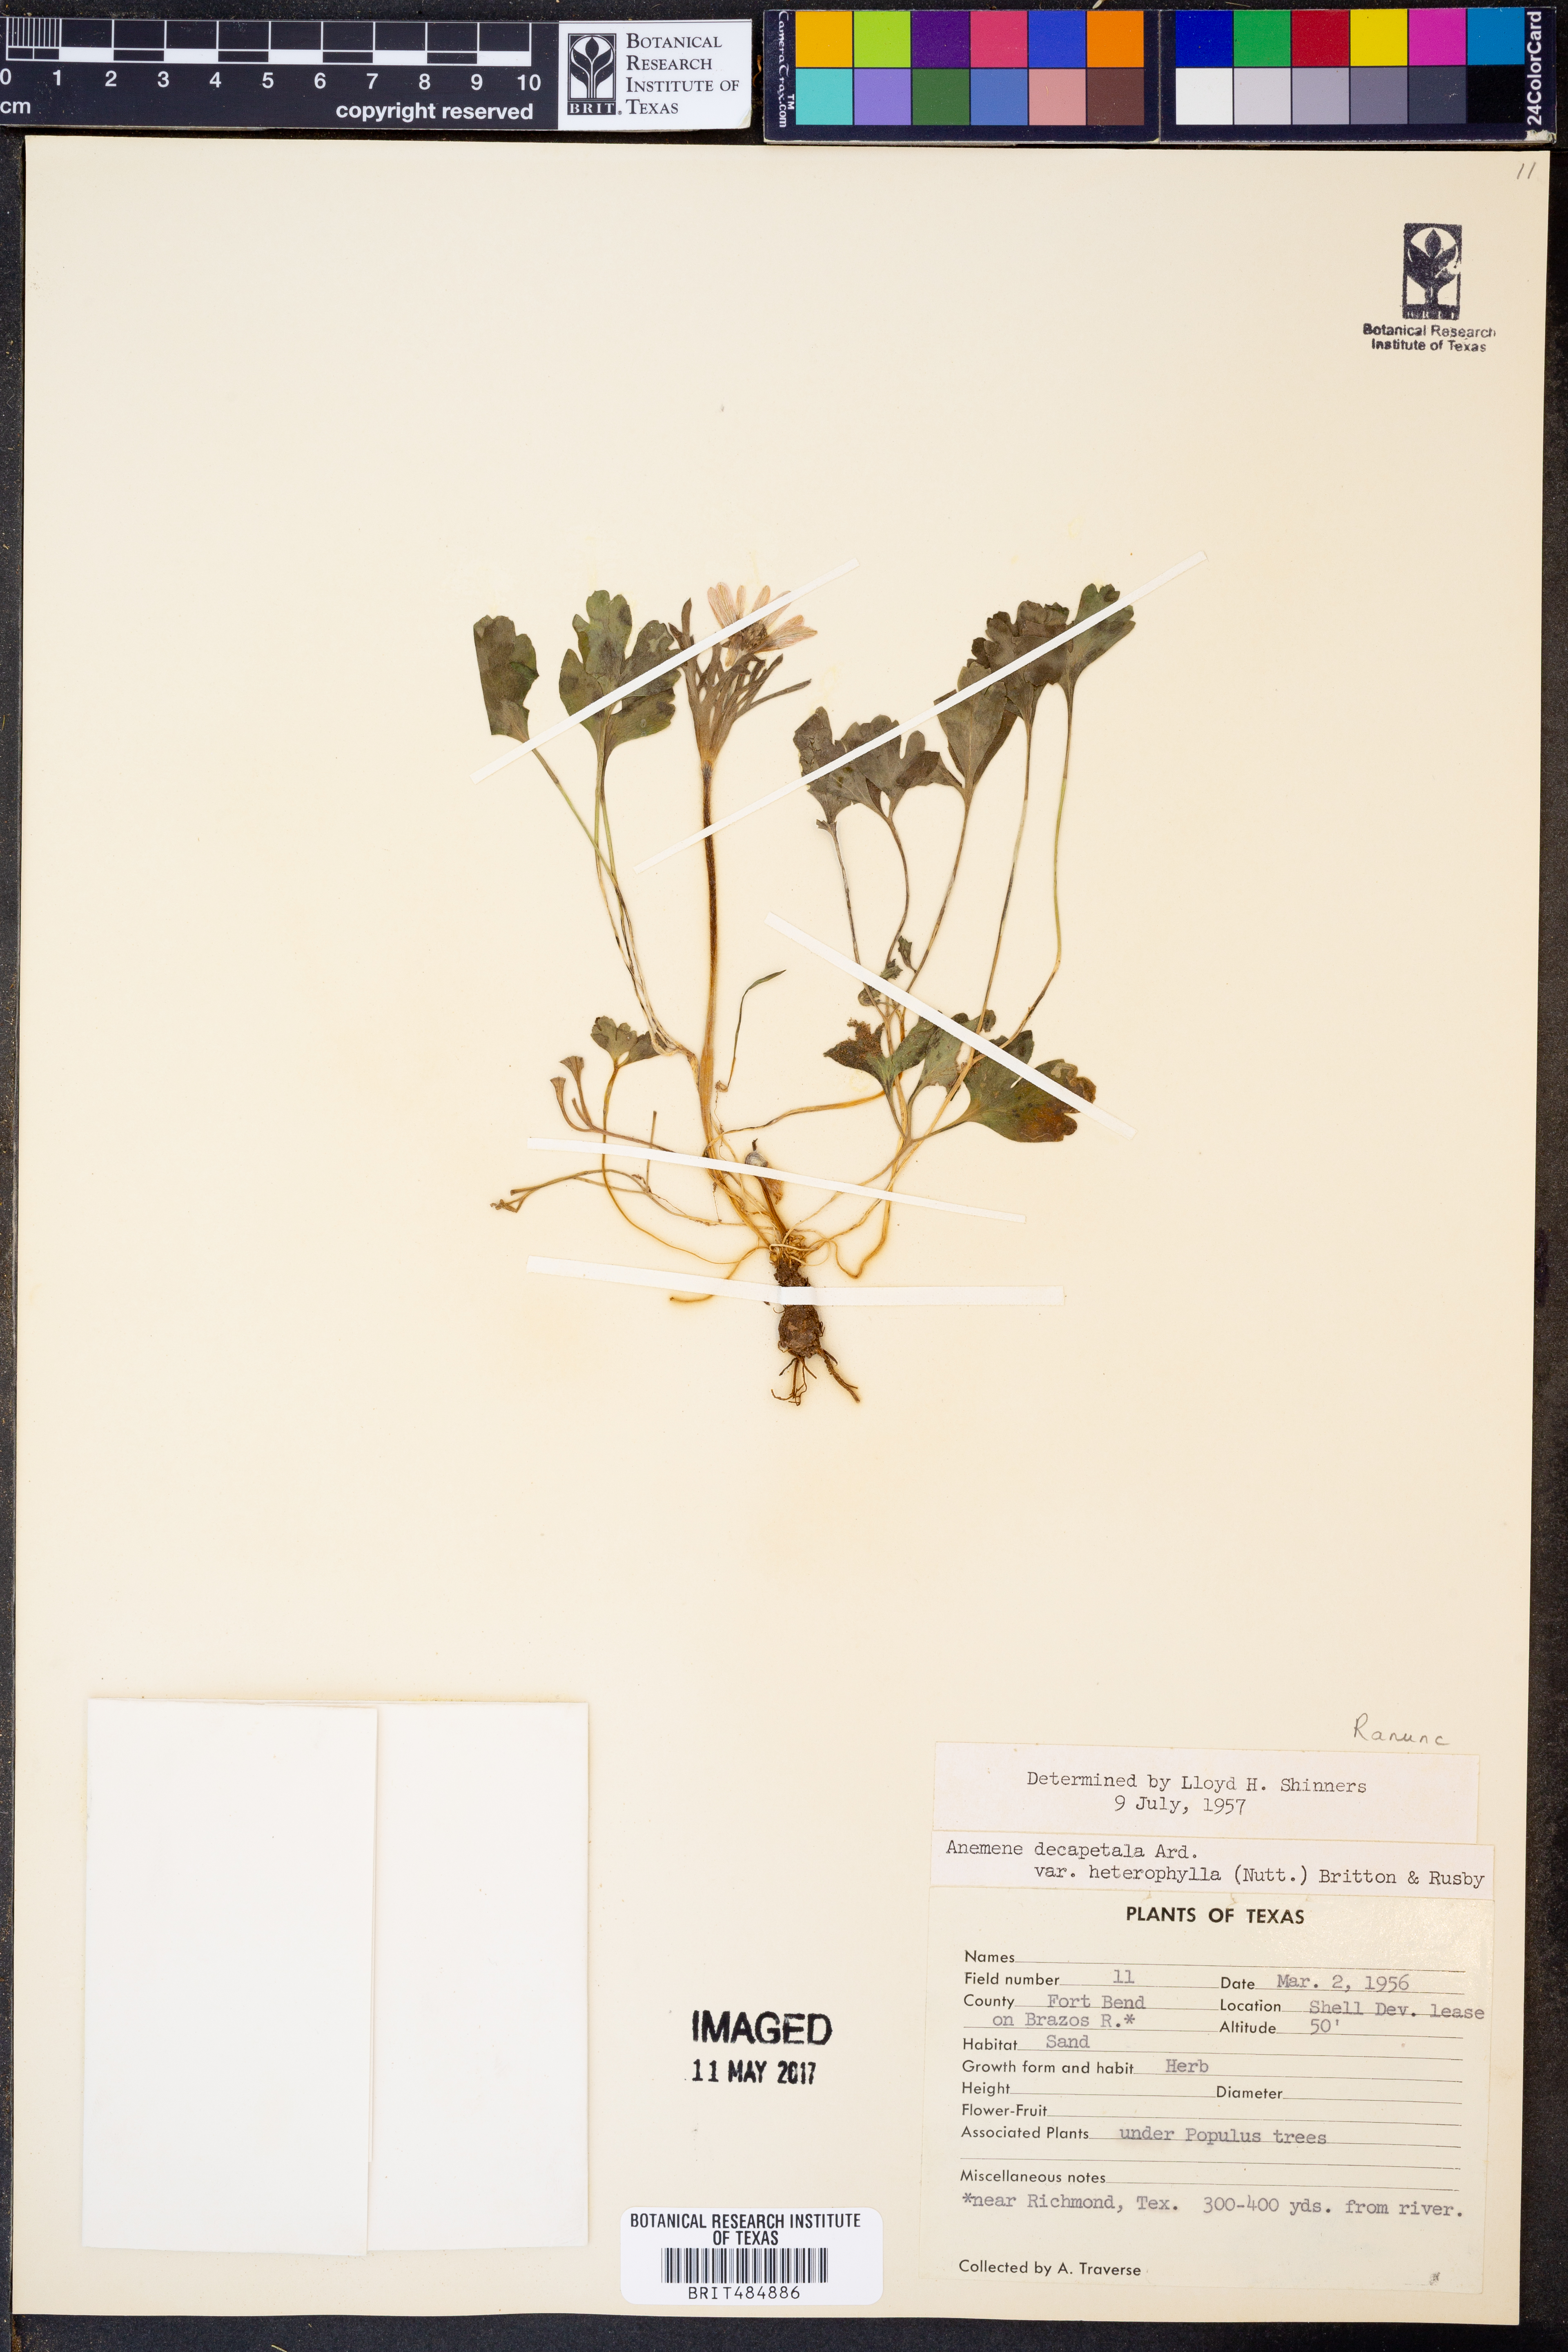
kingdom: Plantae
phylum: Tracheophyta
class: Magnoliopsida
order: Ranunculales
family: Ranunculaceae
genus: Anemone
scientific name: Anemone berlandieri
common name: Ten-petal anemone
